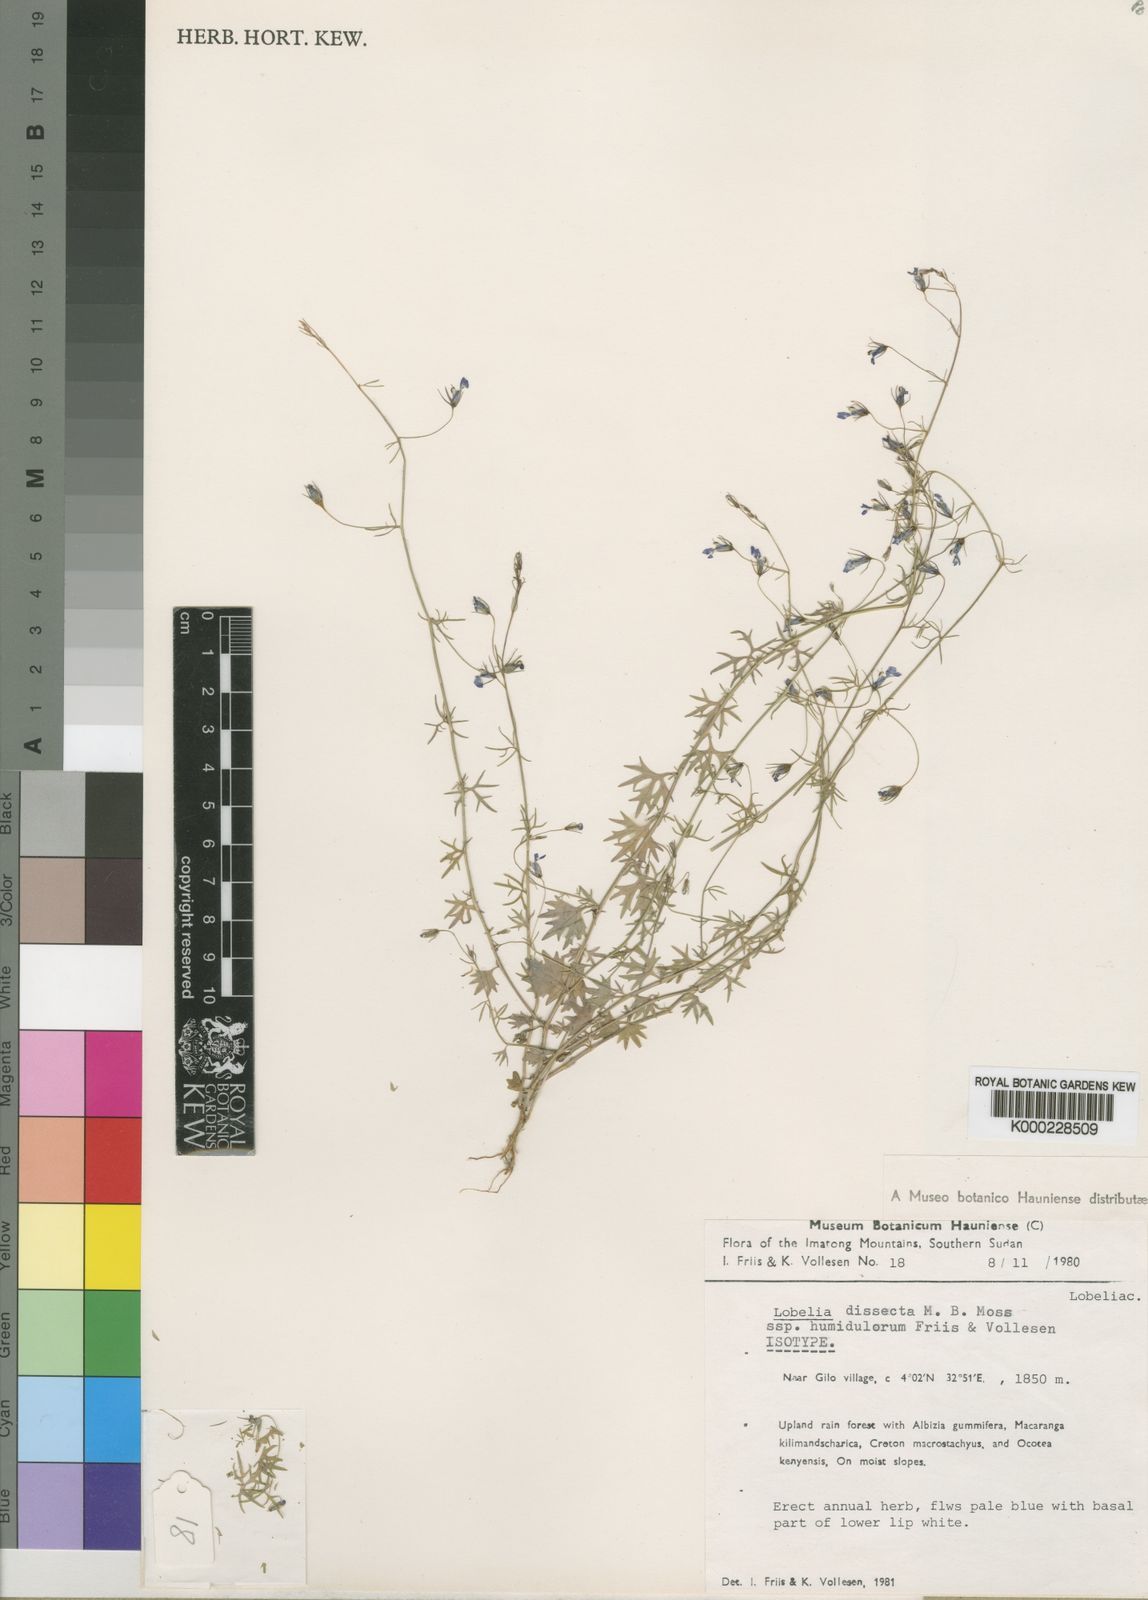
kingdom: Plantae
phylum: Tracheophyta
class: Magnoliopsida
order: Asterales
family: Campanulaceae
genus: Lobelia
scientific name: Lobelia dissecta
